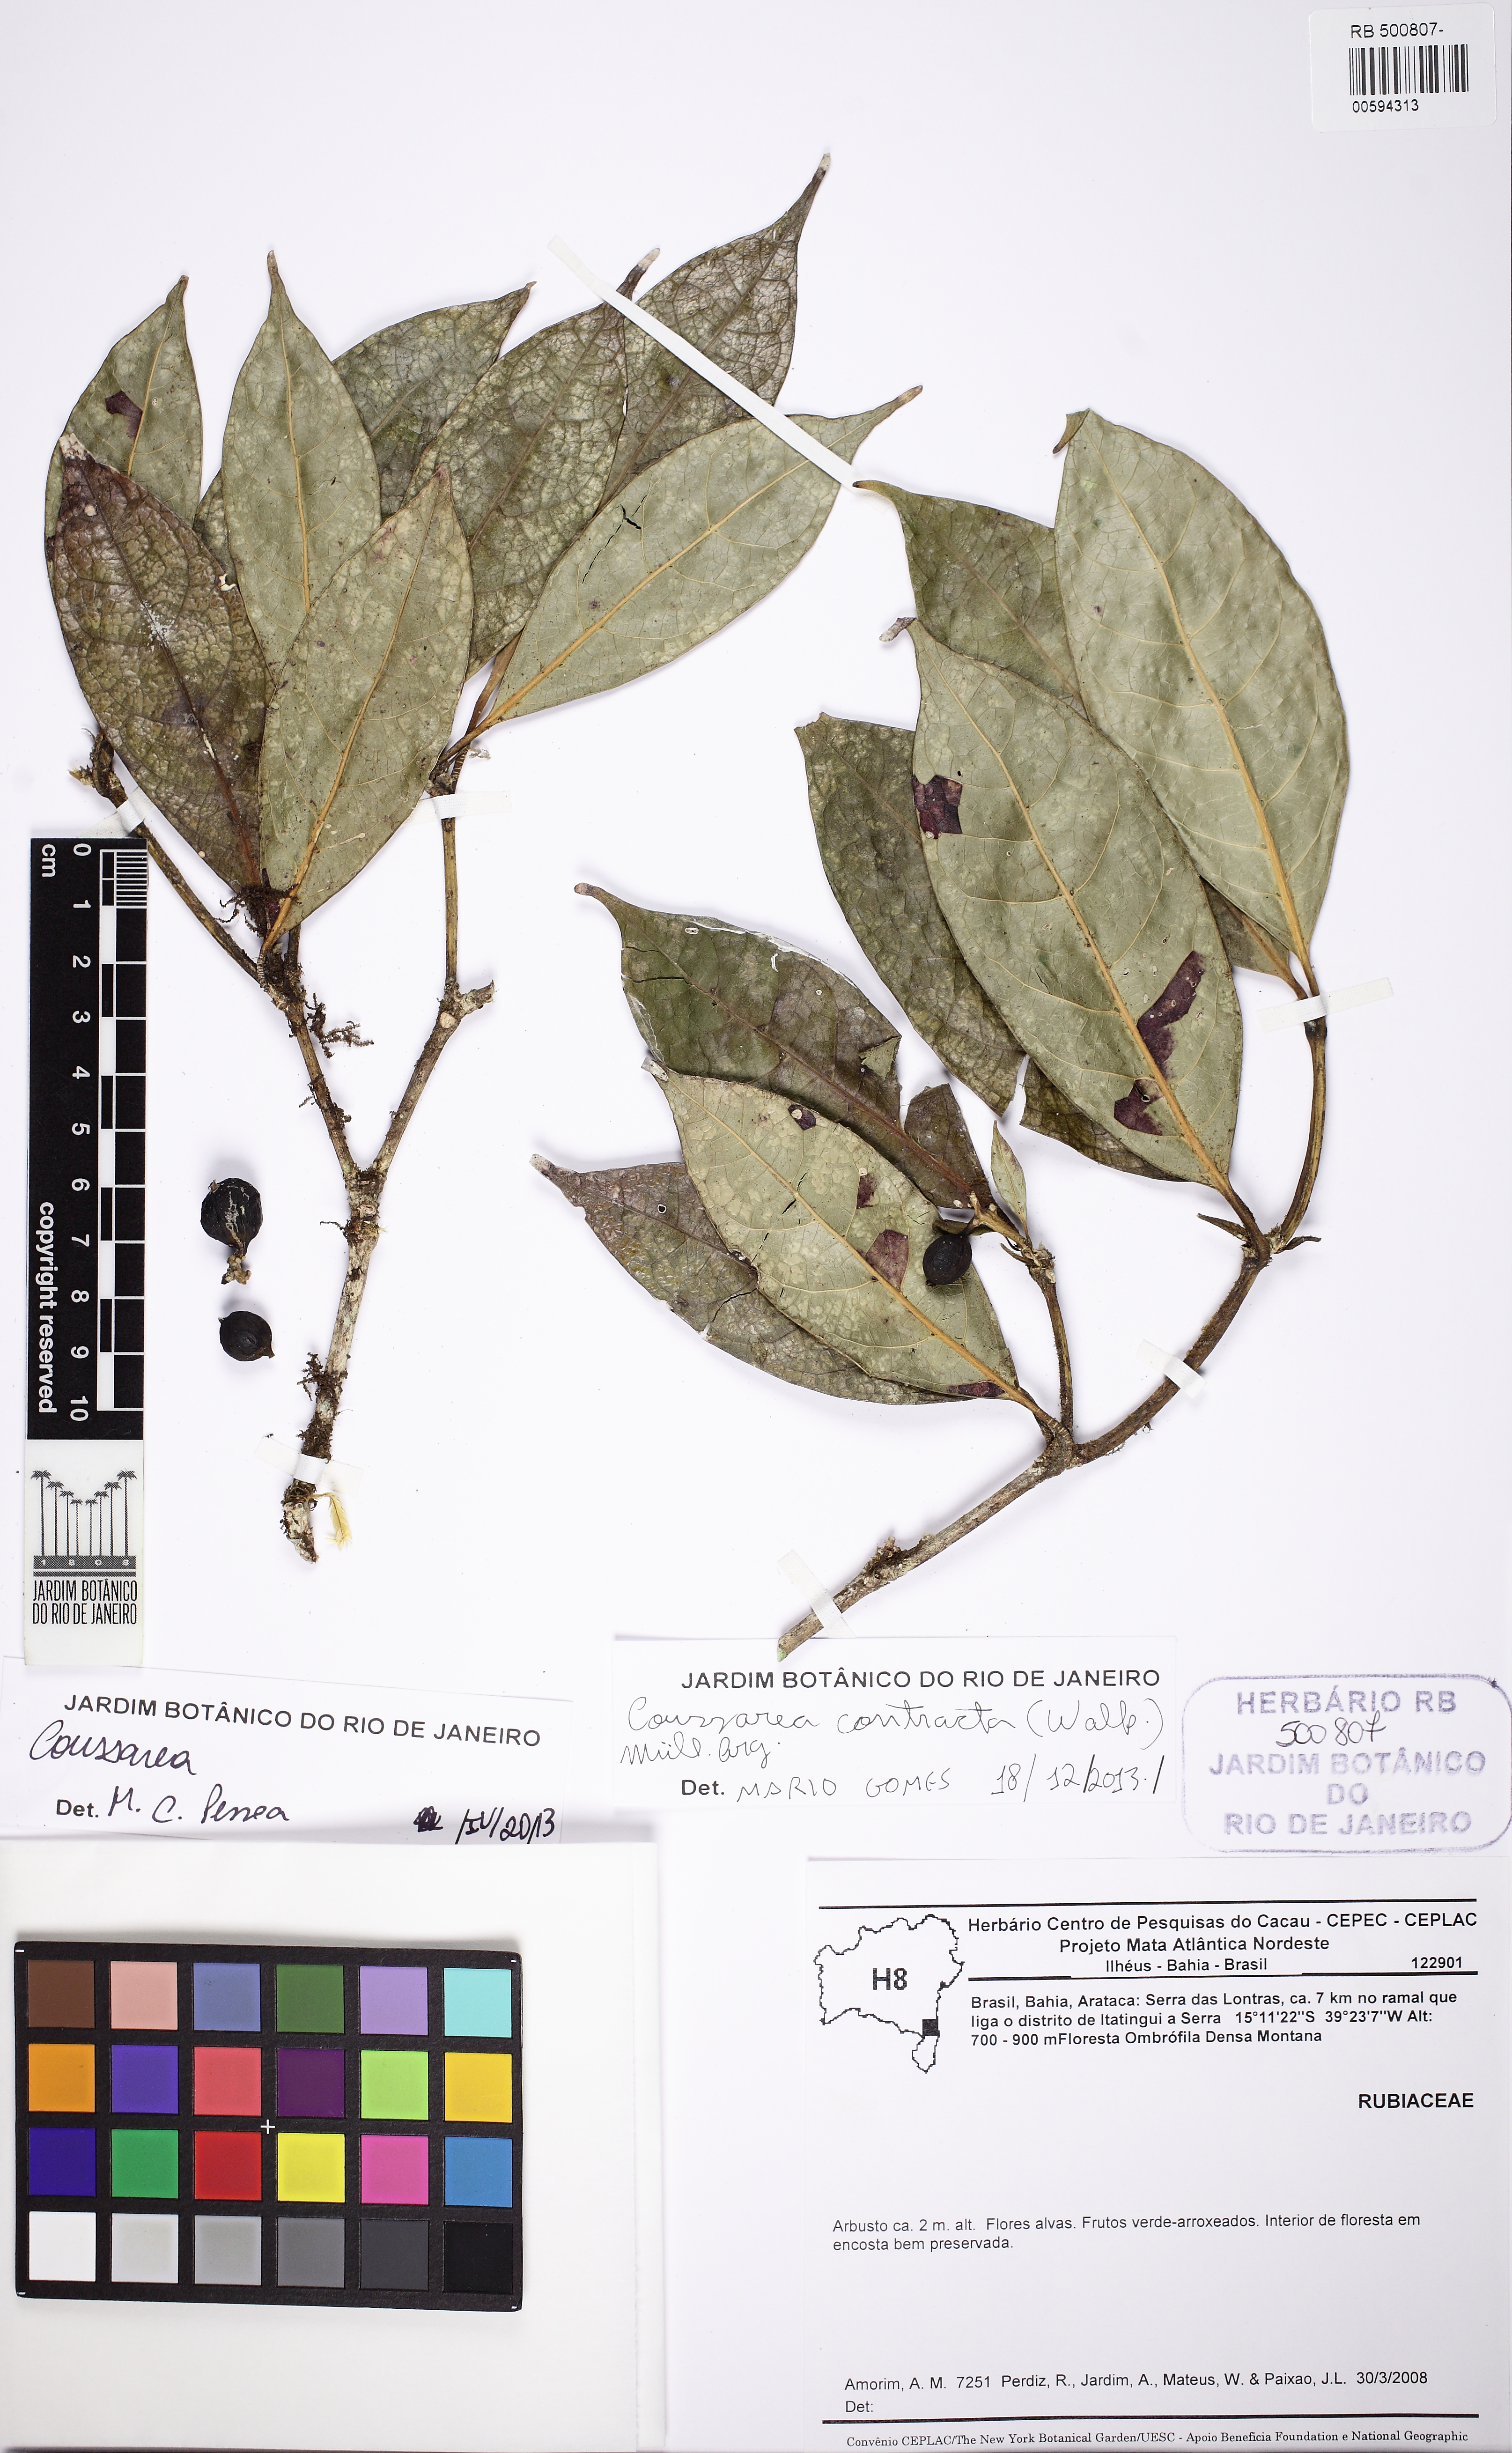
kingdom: Plantae
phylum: Tracheophyta
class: Magnoliopsida
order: Gentianales
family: Rubiaceae
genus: Coussarea
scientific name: Coussarea contracta
